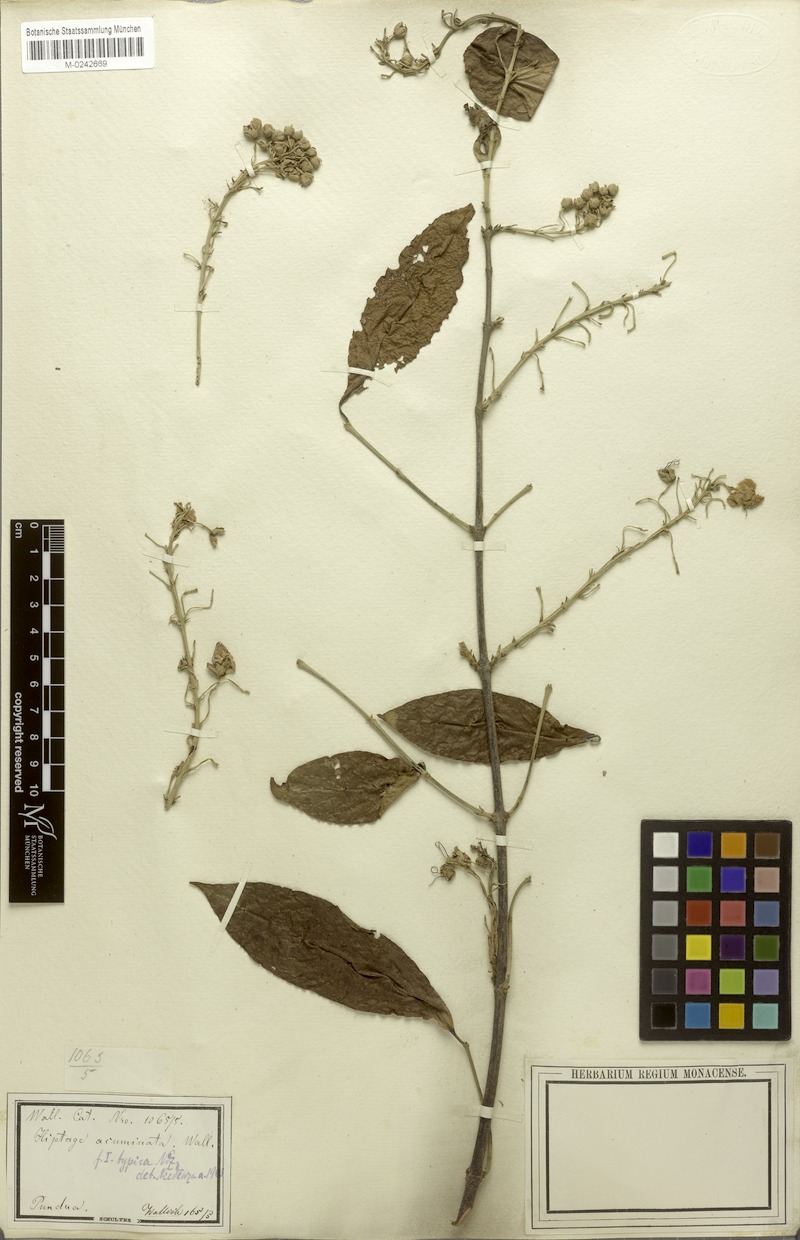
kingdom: Plantae
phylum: Tracheophyta
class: Magnoliopsida
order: Malpighiales
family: Malpighiaceae
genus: Hiptage
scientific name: Hiptage acuminata
